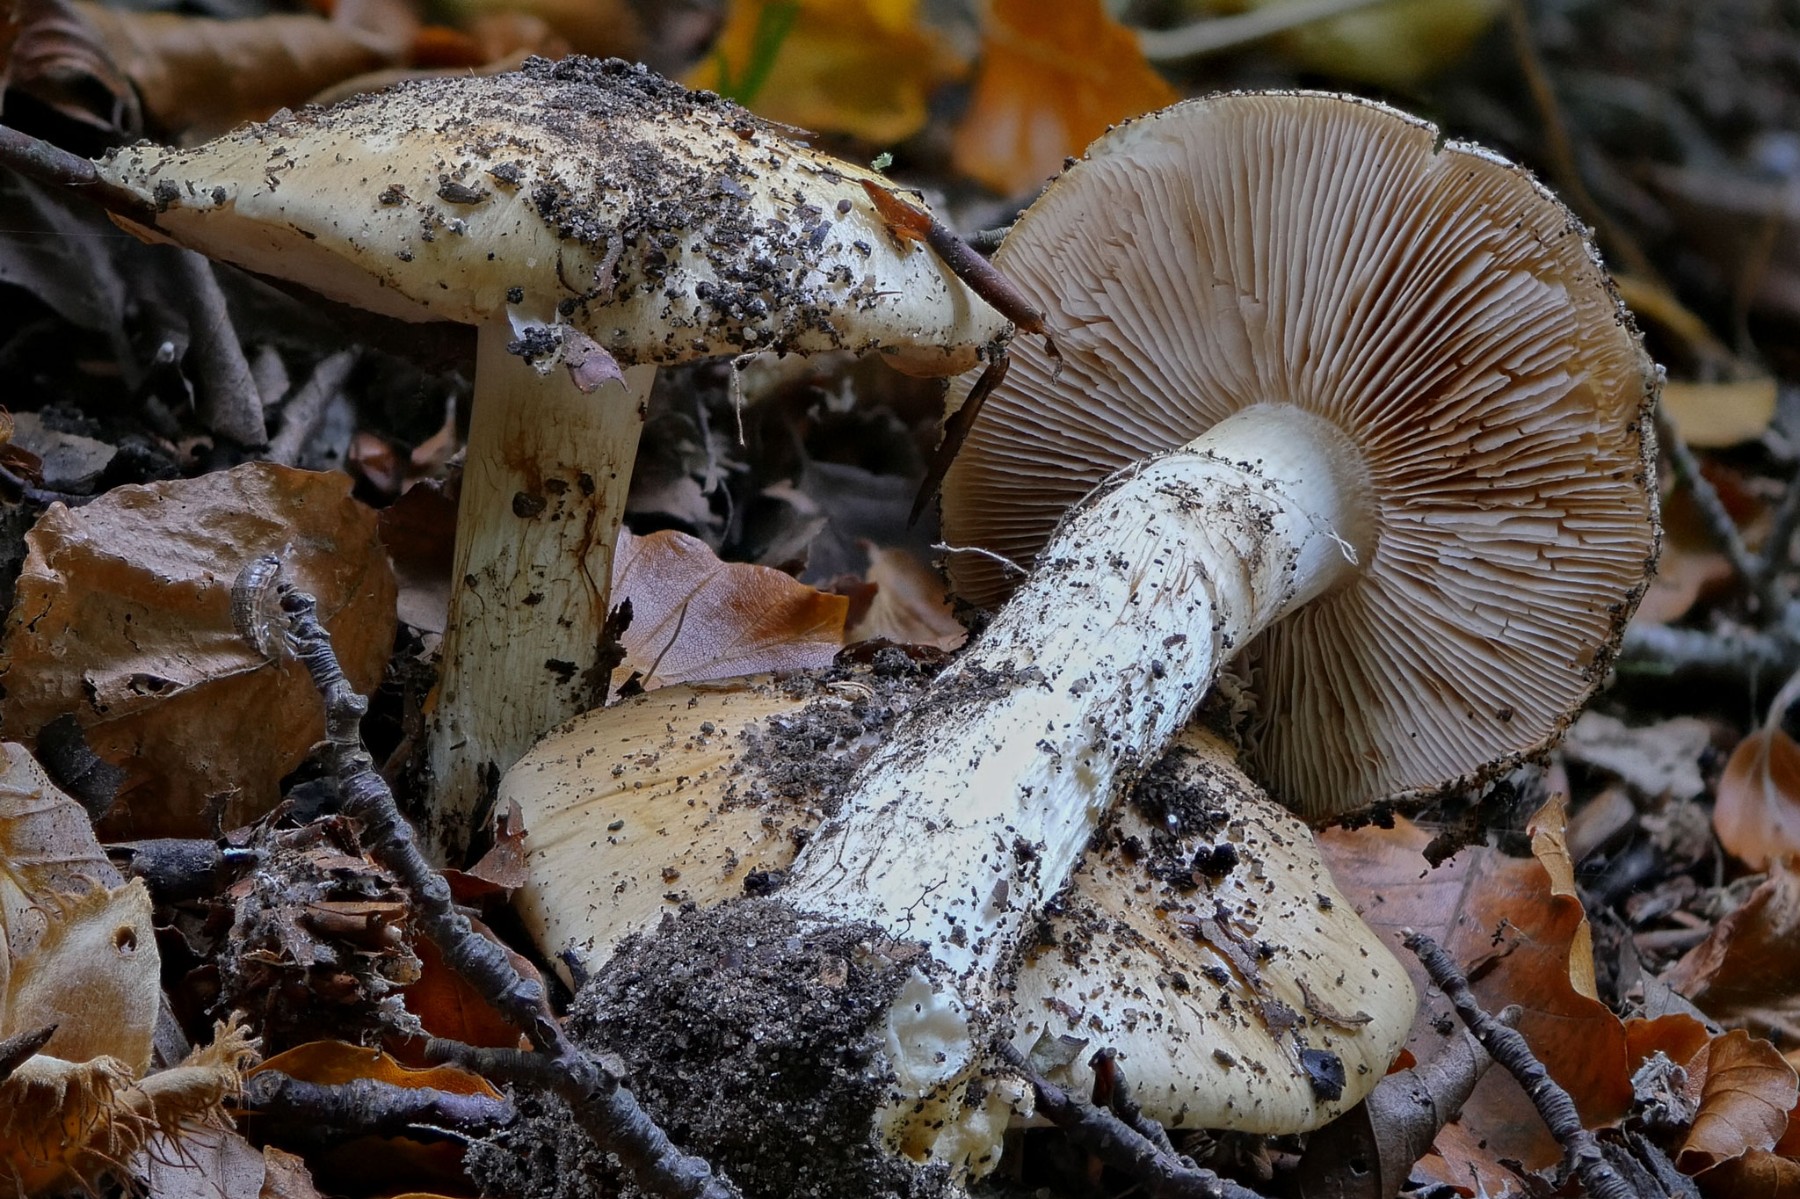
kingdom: Fungi
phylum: Basidiomycota
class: Agaricomycetes
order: Agaricales
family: Cortinariaceae
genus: Phlegmacium
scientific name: Phlegmacium cliduchus
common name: majs-slørhat
